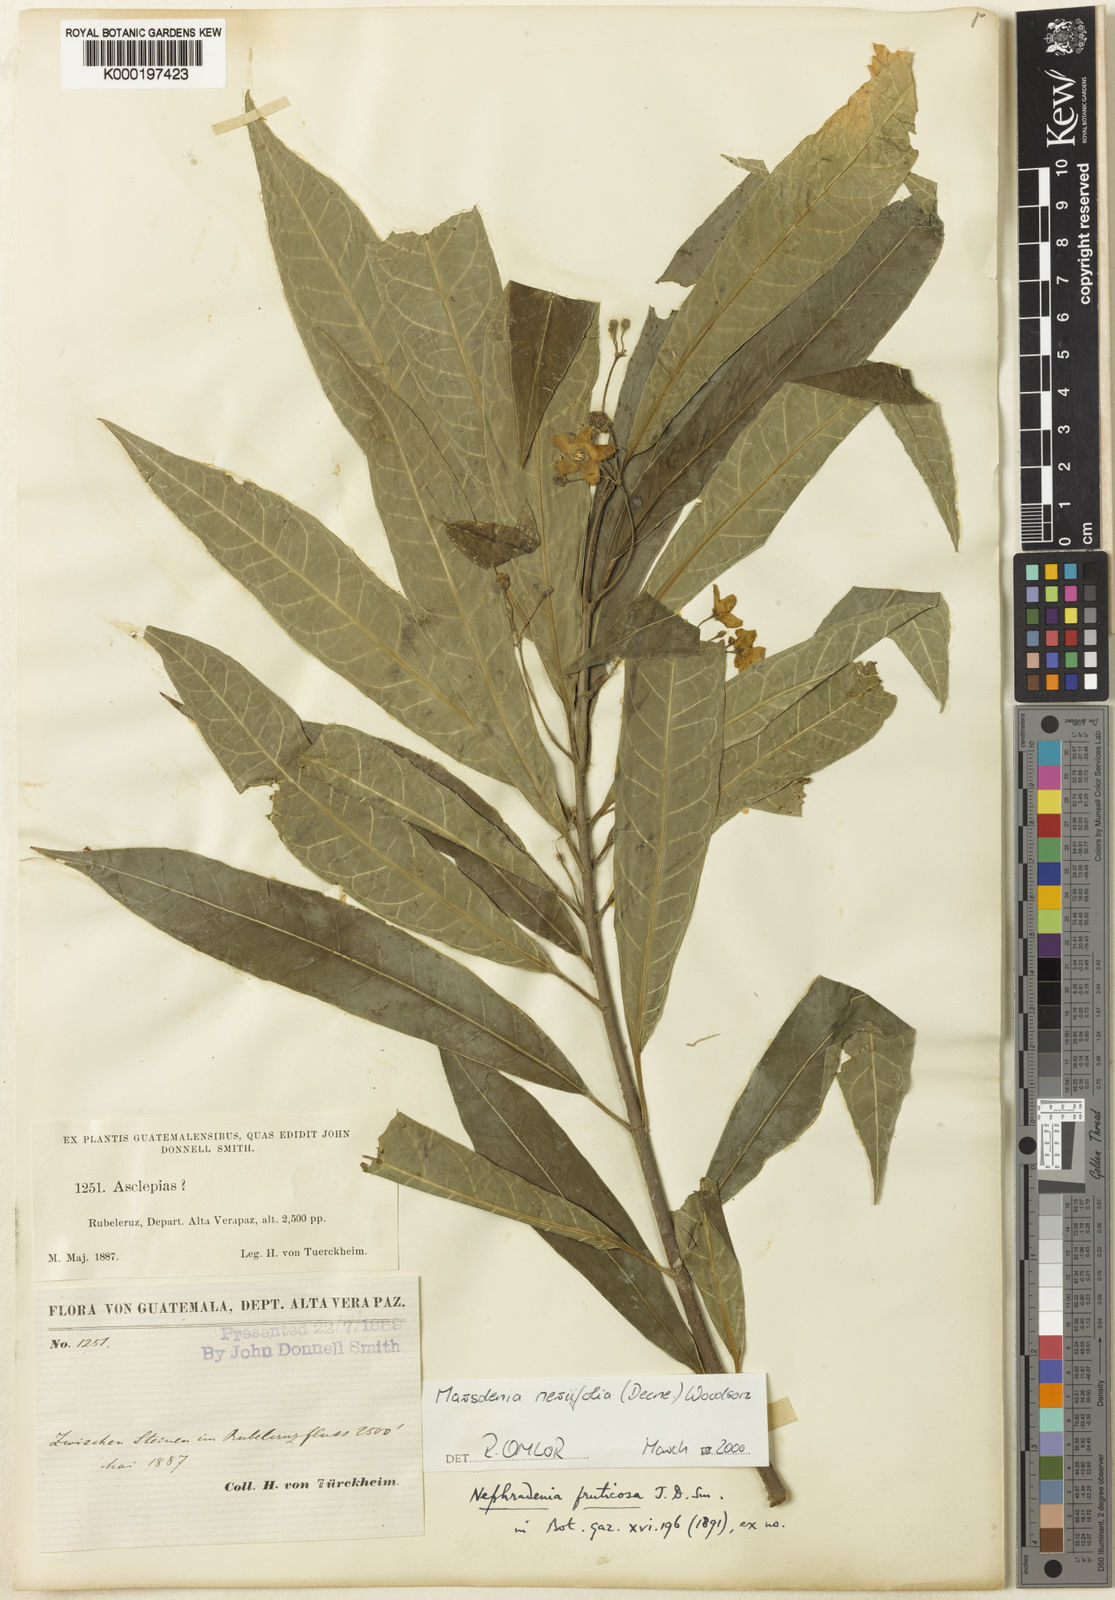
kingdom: Plantae
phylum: Tracheophyta
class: Magnoliopsida
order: Gentianales
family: Apocynaceae
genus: Ruehssia
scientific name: Ruehssia neriifolia
